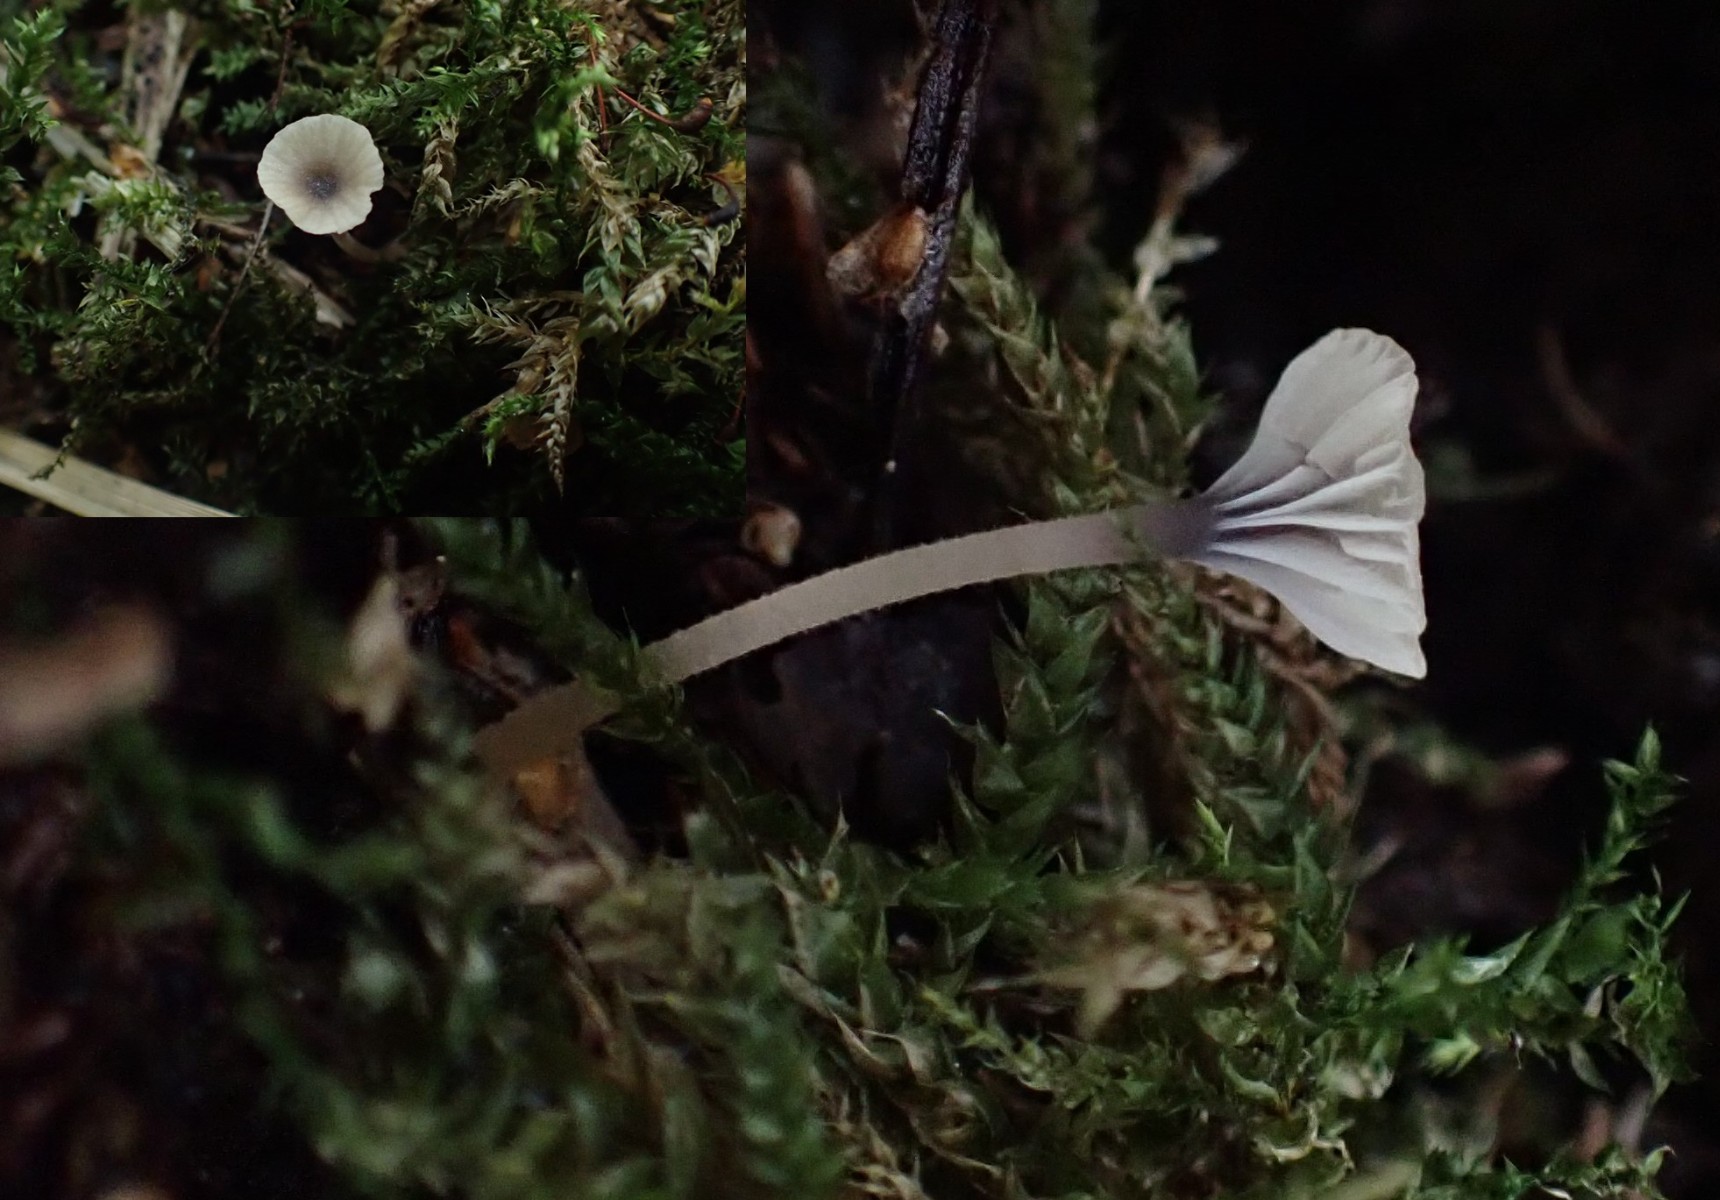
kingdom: Fungi
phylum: Basidiomycota
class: Agaricomycetes
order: Hymenochaetales
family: Rickenellaceae
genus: Rickenella
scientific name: Rickenella swartzii
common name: finstokket mosnavlehat
